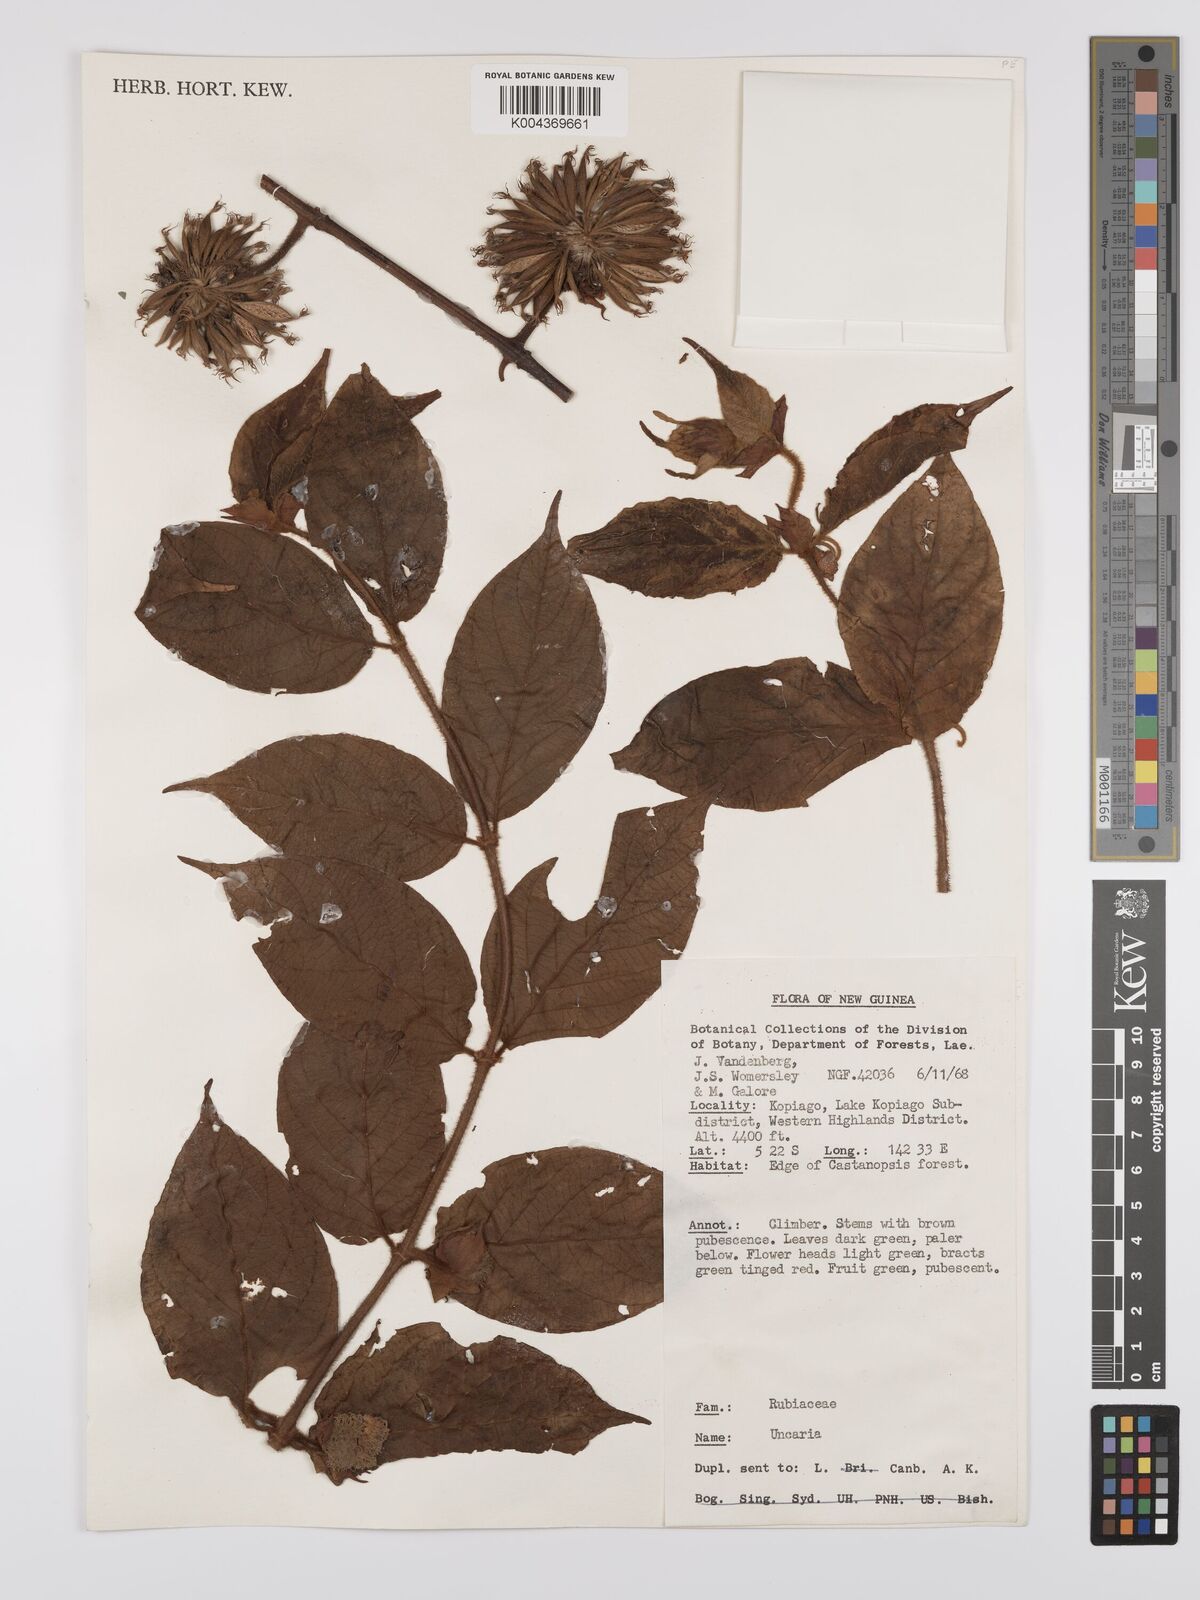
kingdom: Plantae
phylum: Tracheophyta
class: Magnoliopsida
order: Gentianales
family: Rubiaceae
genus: Uncaria
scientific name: Uncaria lanosa
